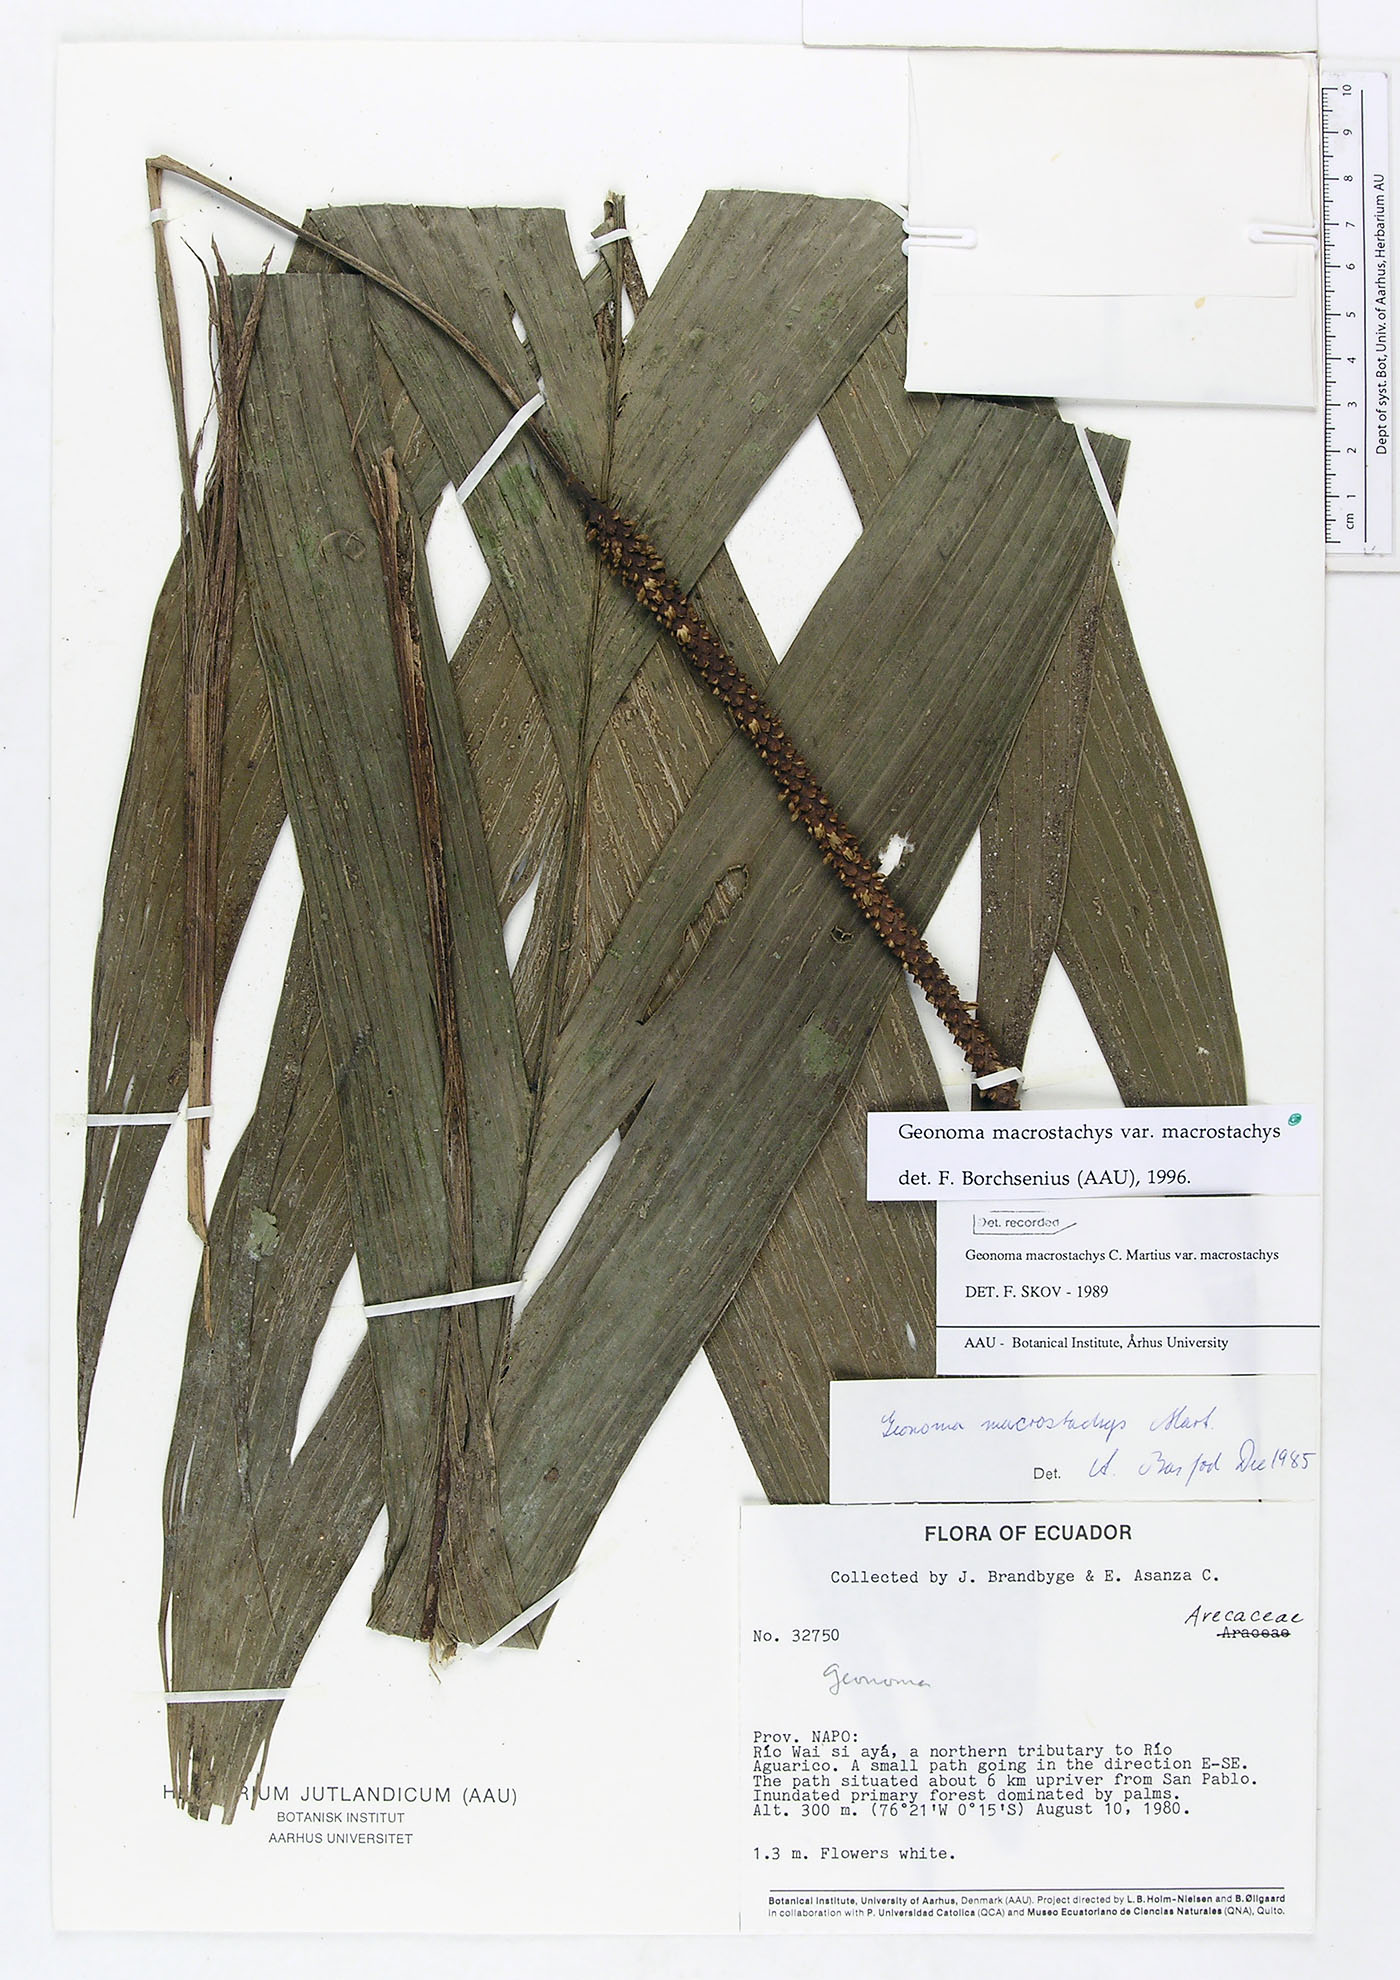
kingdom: Plantae
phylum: Tracheophyta
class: Liliopsida
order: Arecales
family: Arecaceae
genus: Geonoma
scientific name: Geonoma macrostachys
